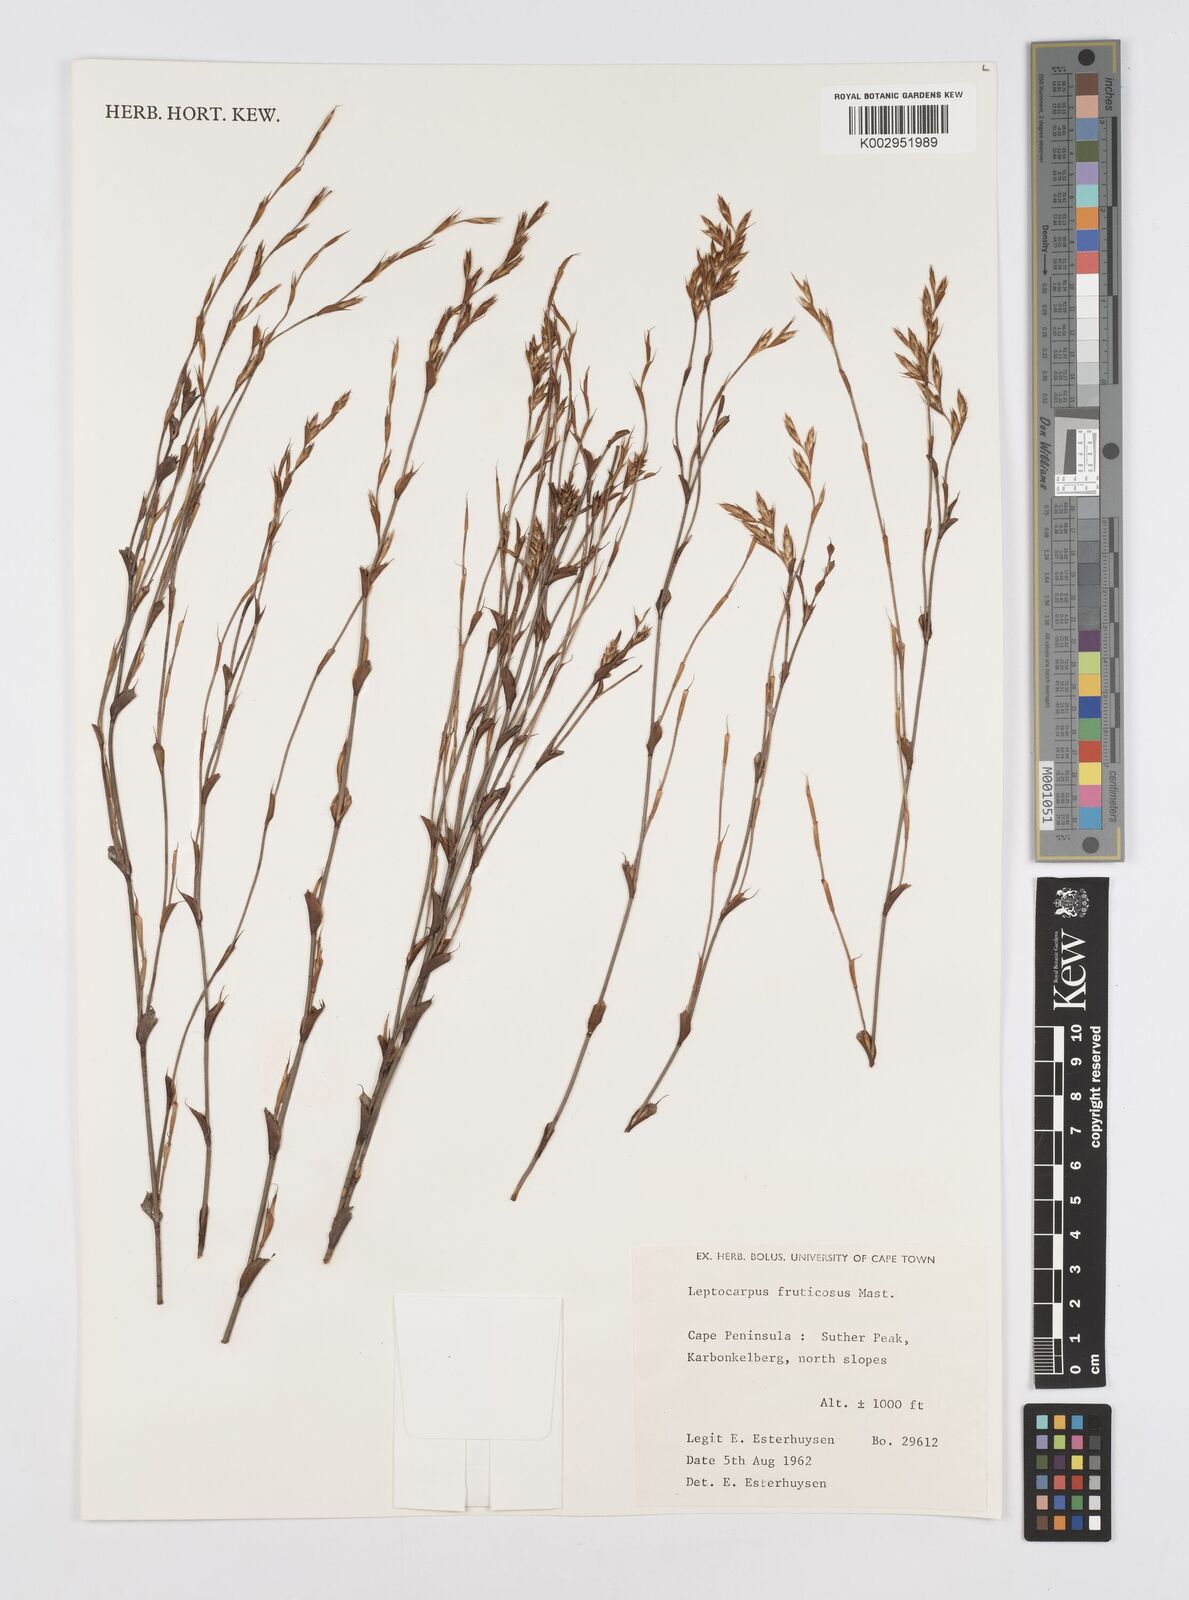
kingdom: Plantae
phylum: Tracheophyta
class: Liliopsida
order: Poales
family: Restionaceae
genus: Rhodocoma
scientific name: Rhodocoma fruticosa
